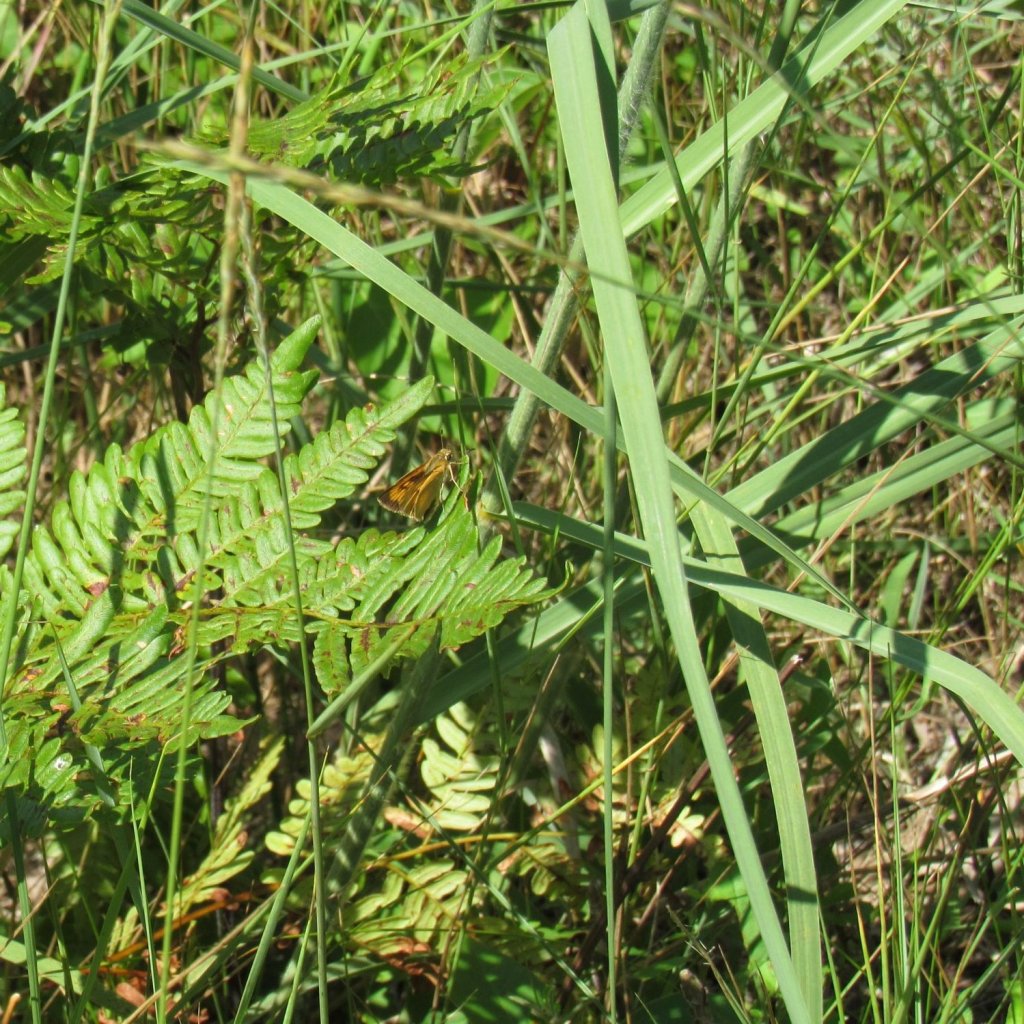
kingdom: Animalia
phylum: Arthropoda
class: Insecta
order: Lepidoptera
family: Hesperiidae
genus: Atrytone
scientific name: Atrytone delaware
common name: Delaware Skipper
